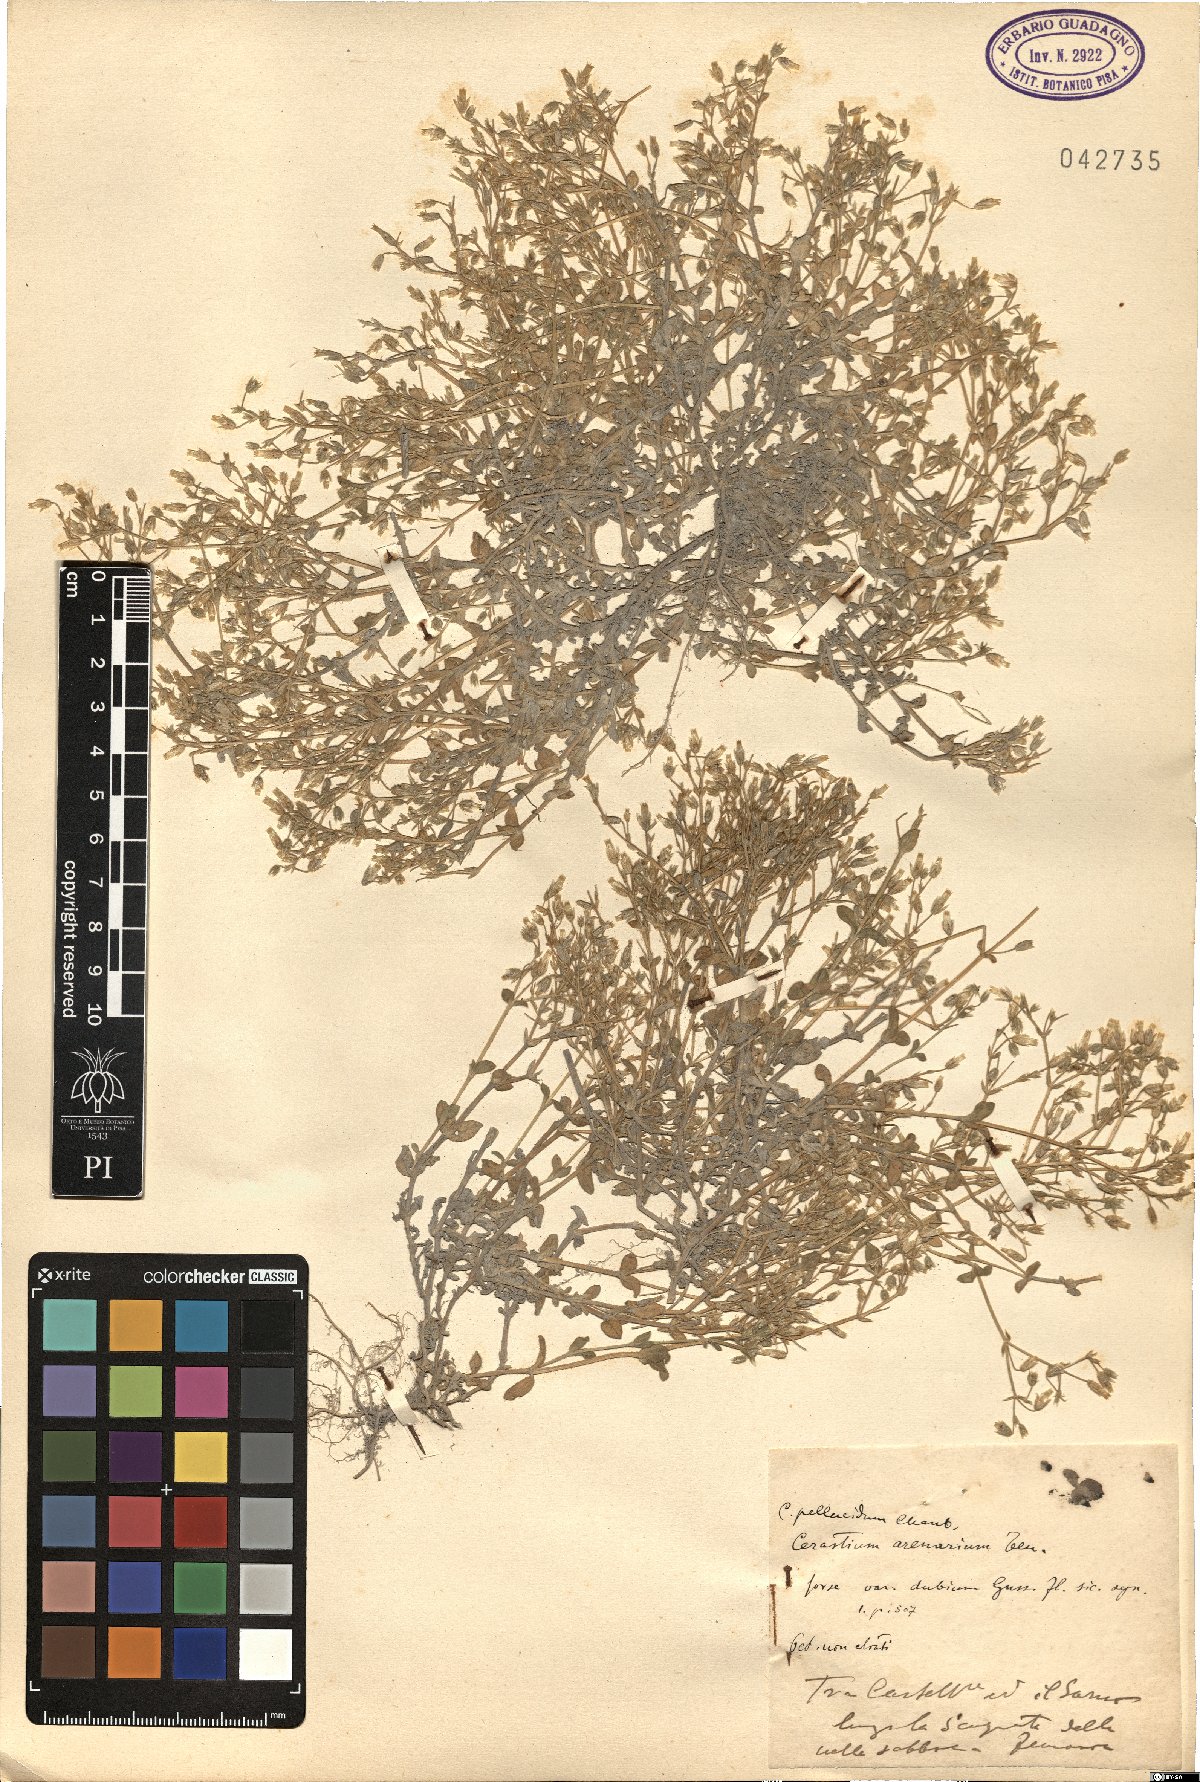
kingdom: Plantae
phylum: Tracheophyta
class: Magnoliopsida
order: Caryophyllales
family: Caryophyllaceae
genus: Cerastium
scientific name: Cerastium semidecandrum
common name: Little mouse-ear
